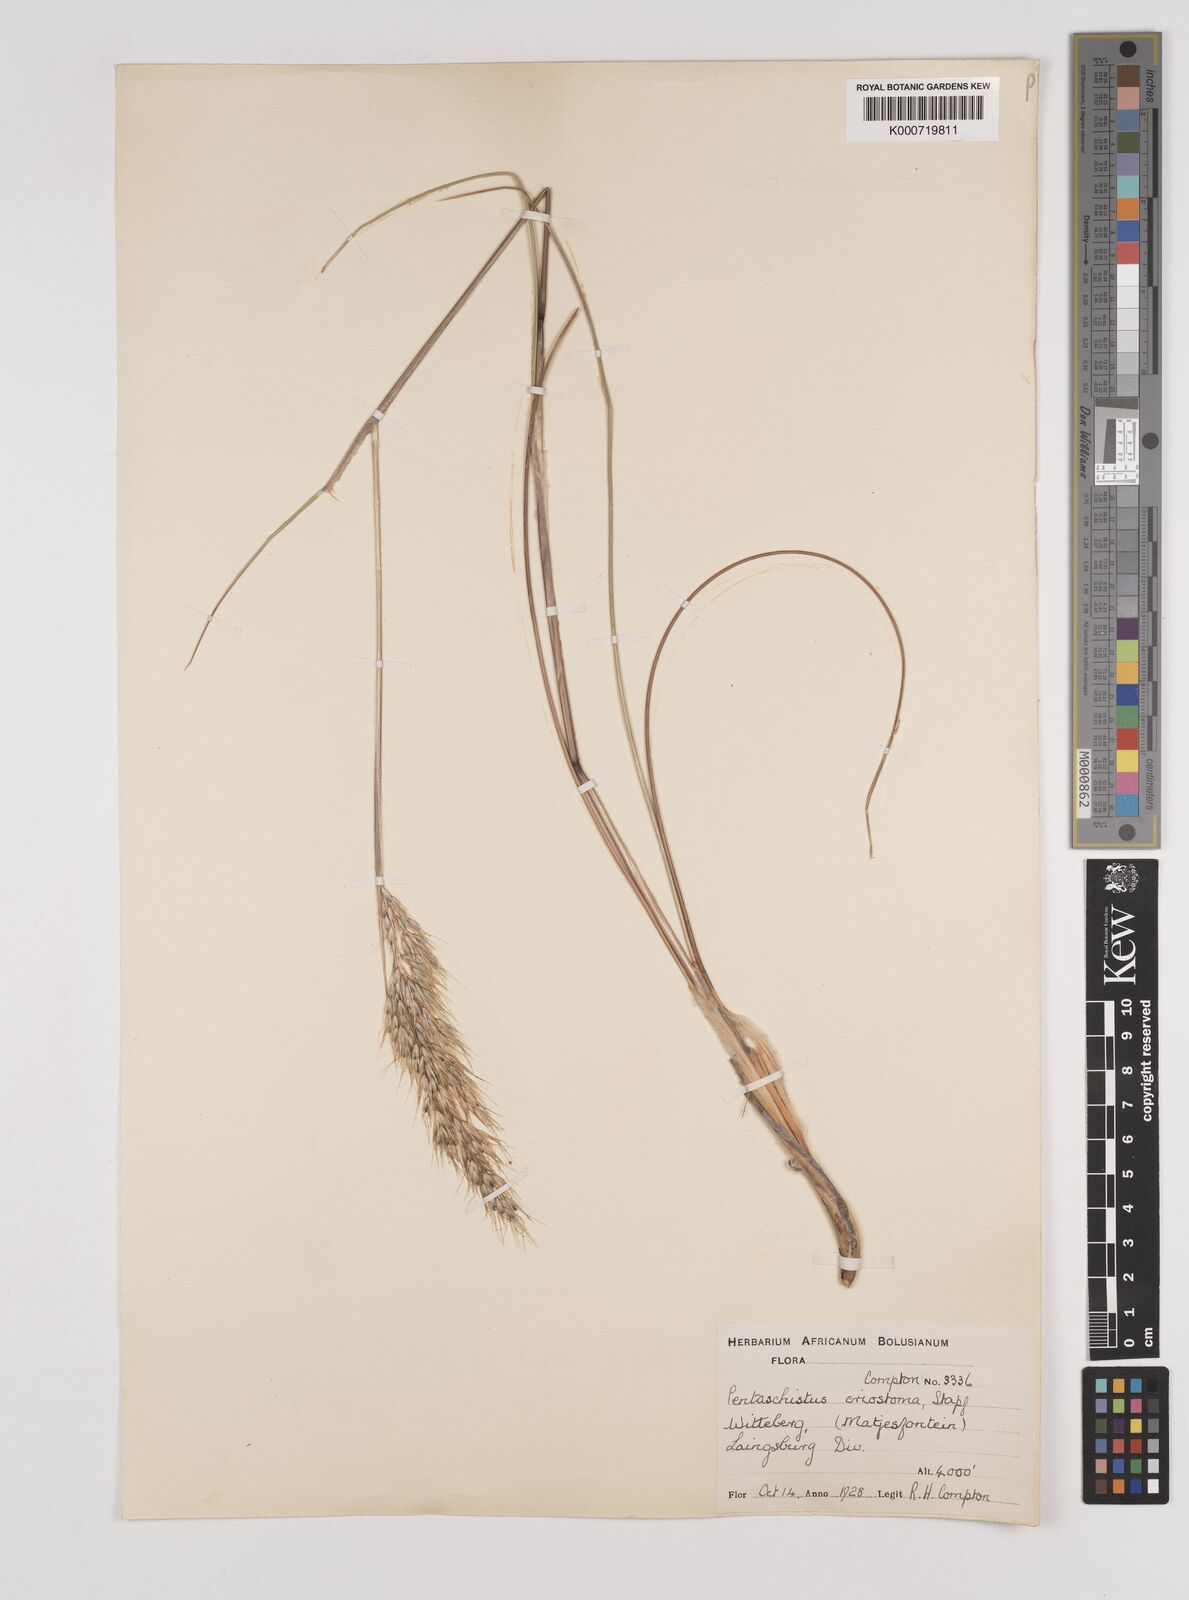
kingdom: Plantae
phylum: Tracheophyta
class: Liliopsida
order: Poales
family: Poaceae
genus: Pentameris
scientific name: Pentameris eriostoma
